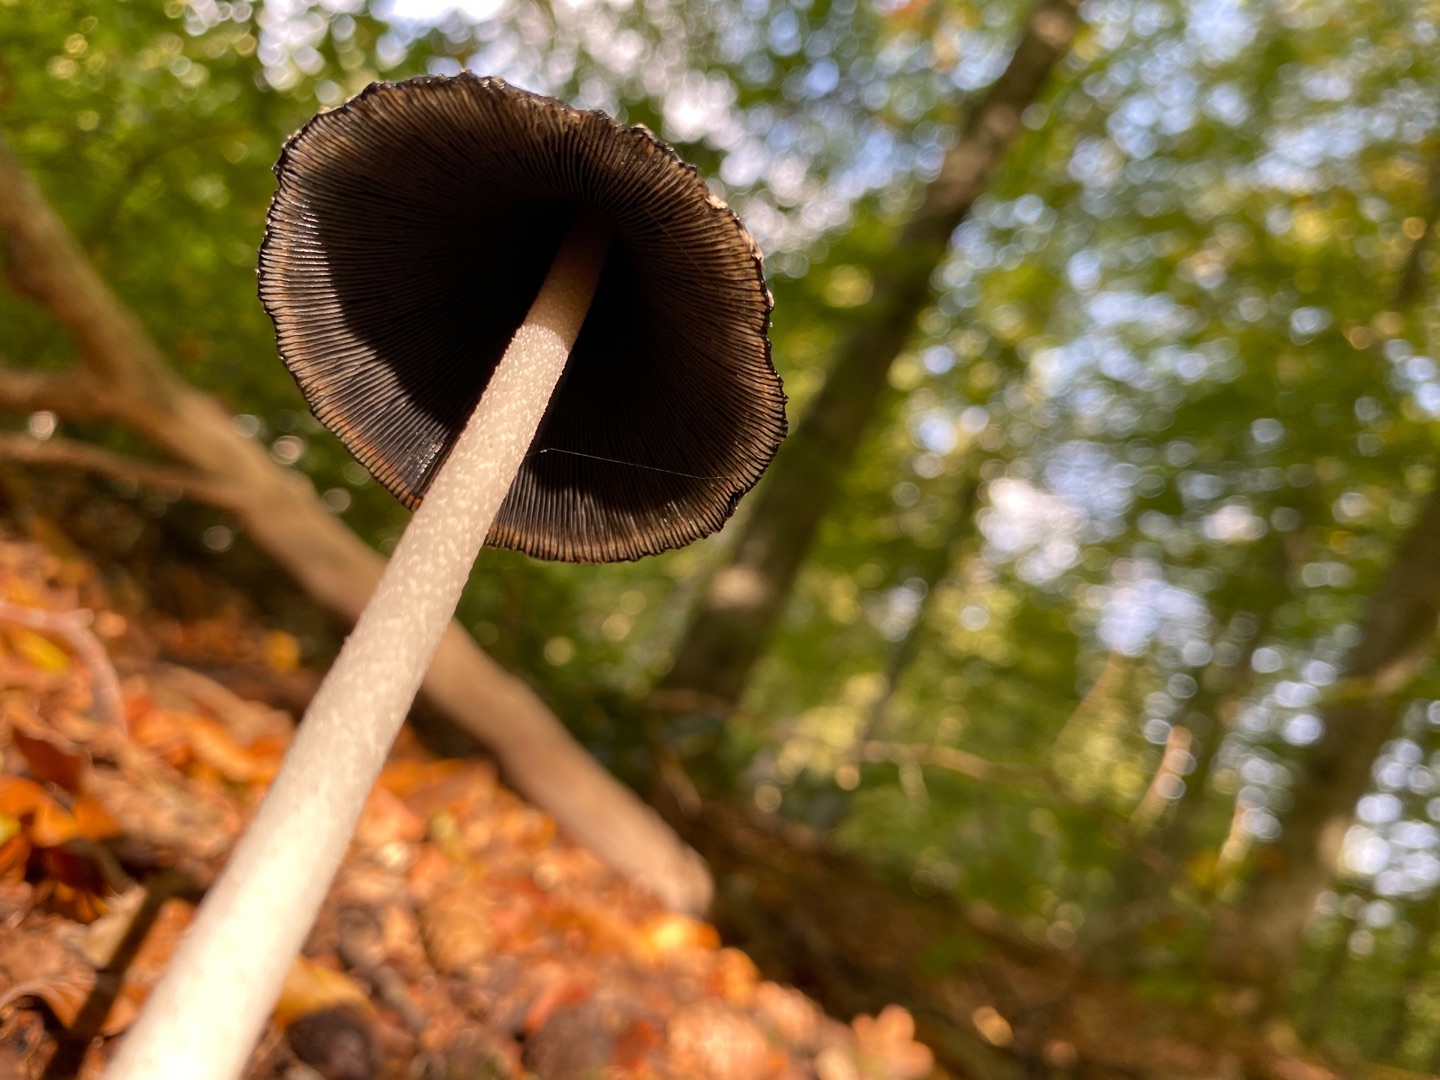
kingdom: Fungi
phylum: Basidiomycota
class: Agaricomycetes
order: Agaricales
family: Psathyrellaceae
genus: Coprinopsis
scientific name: Coprinopsis picacea
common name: Skade-blækhat
